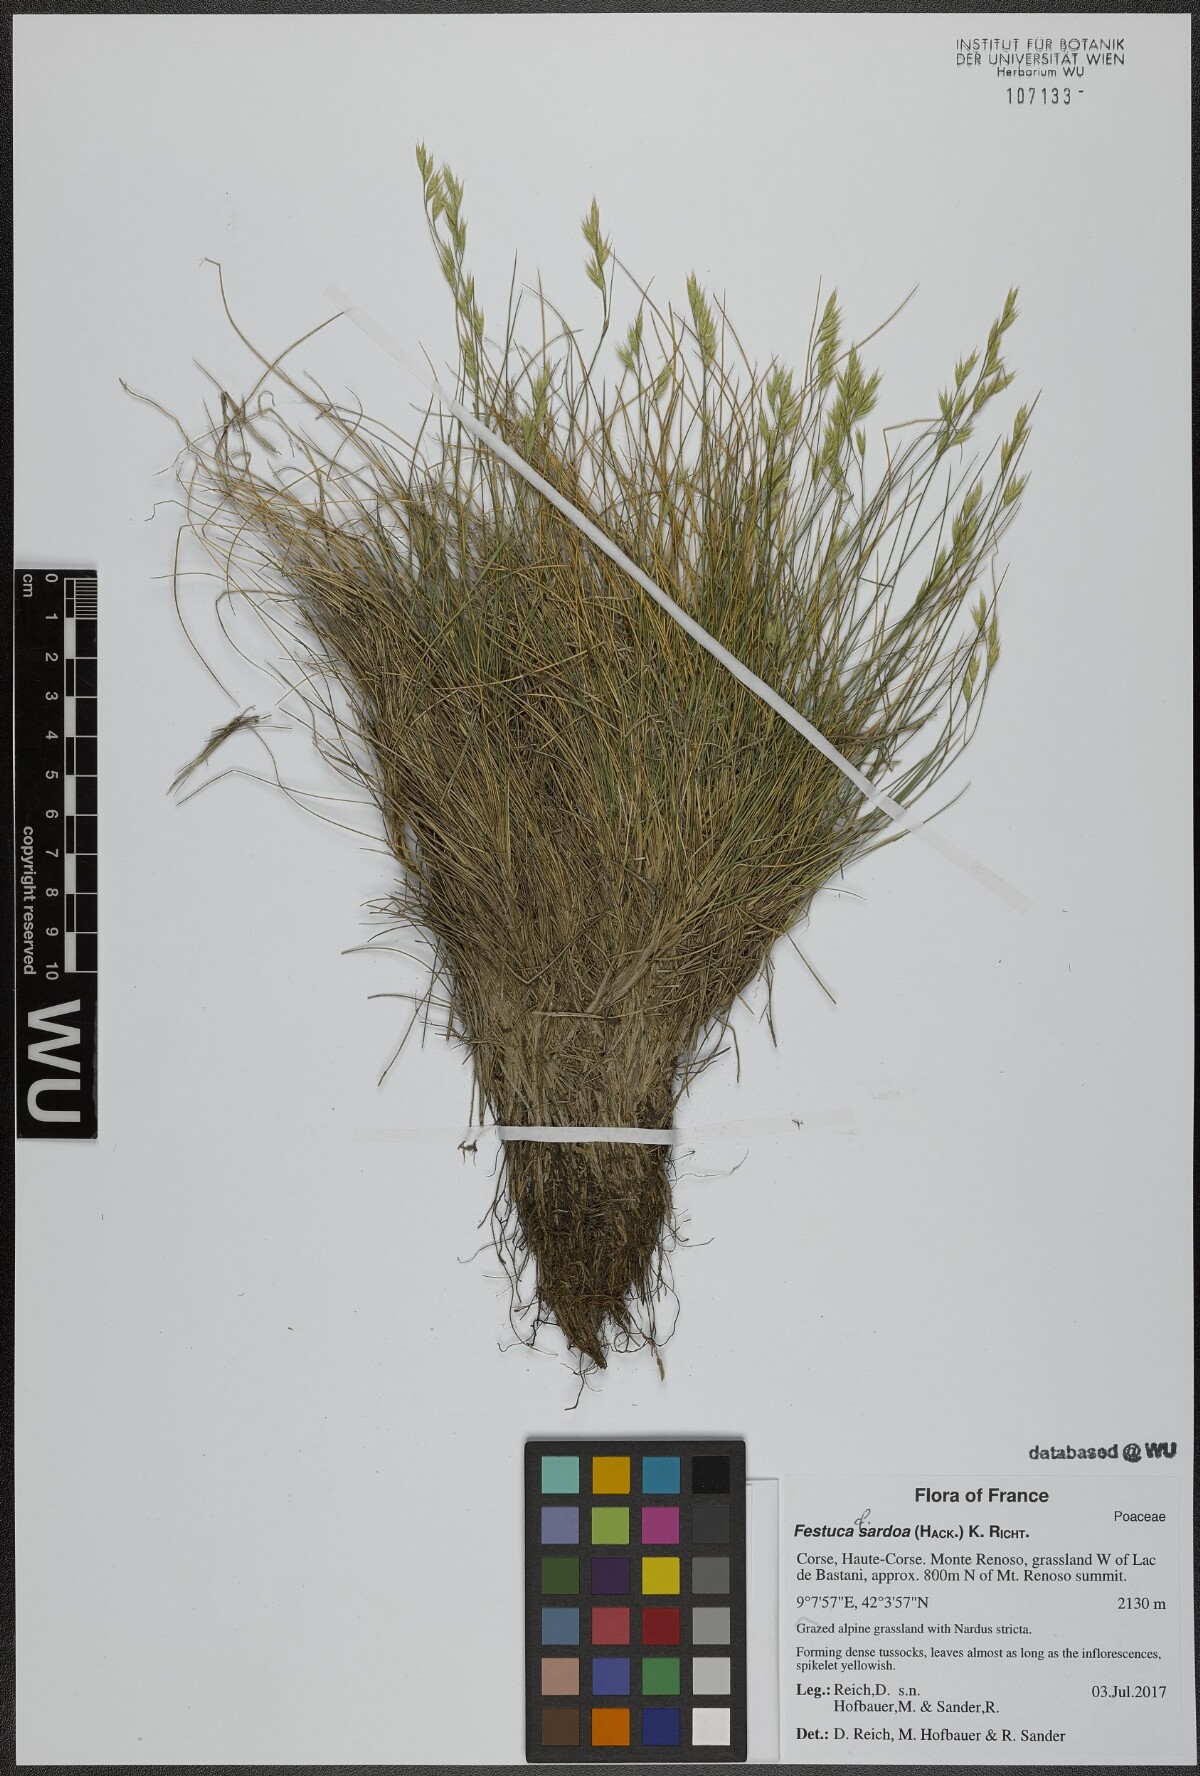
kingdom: Plantae
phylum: Tracheophyta
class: Liliopsida
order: Poales
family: Poaceae
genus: Festuca
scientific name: Festuca sardoa
